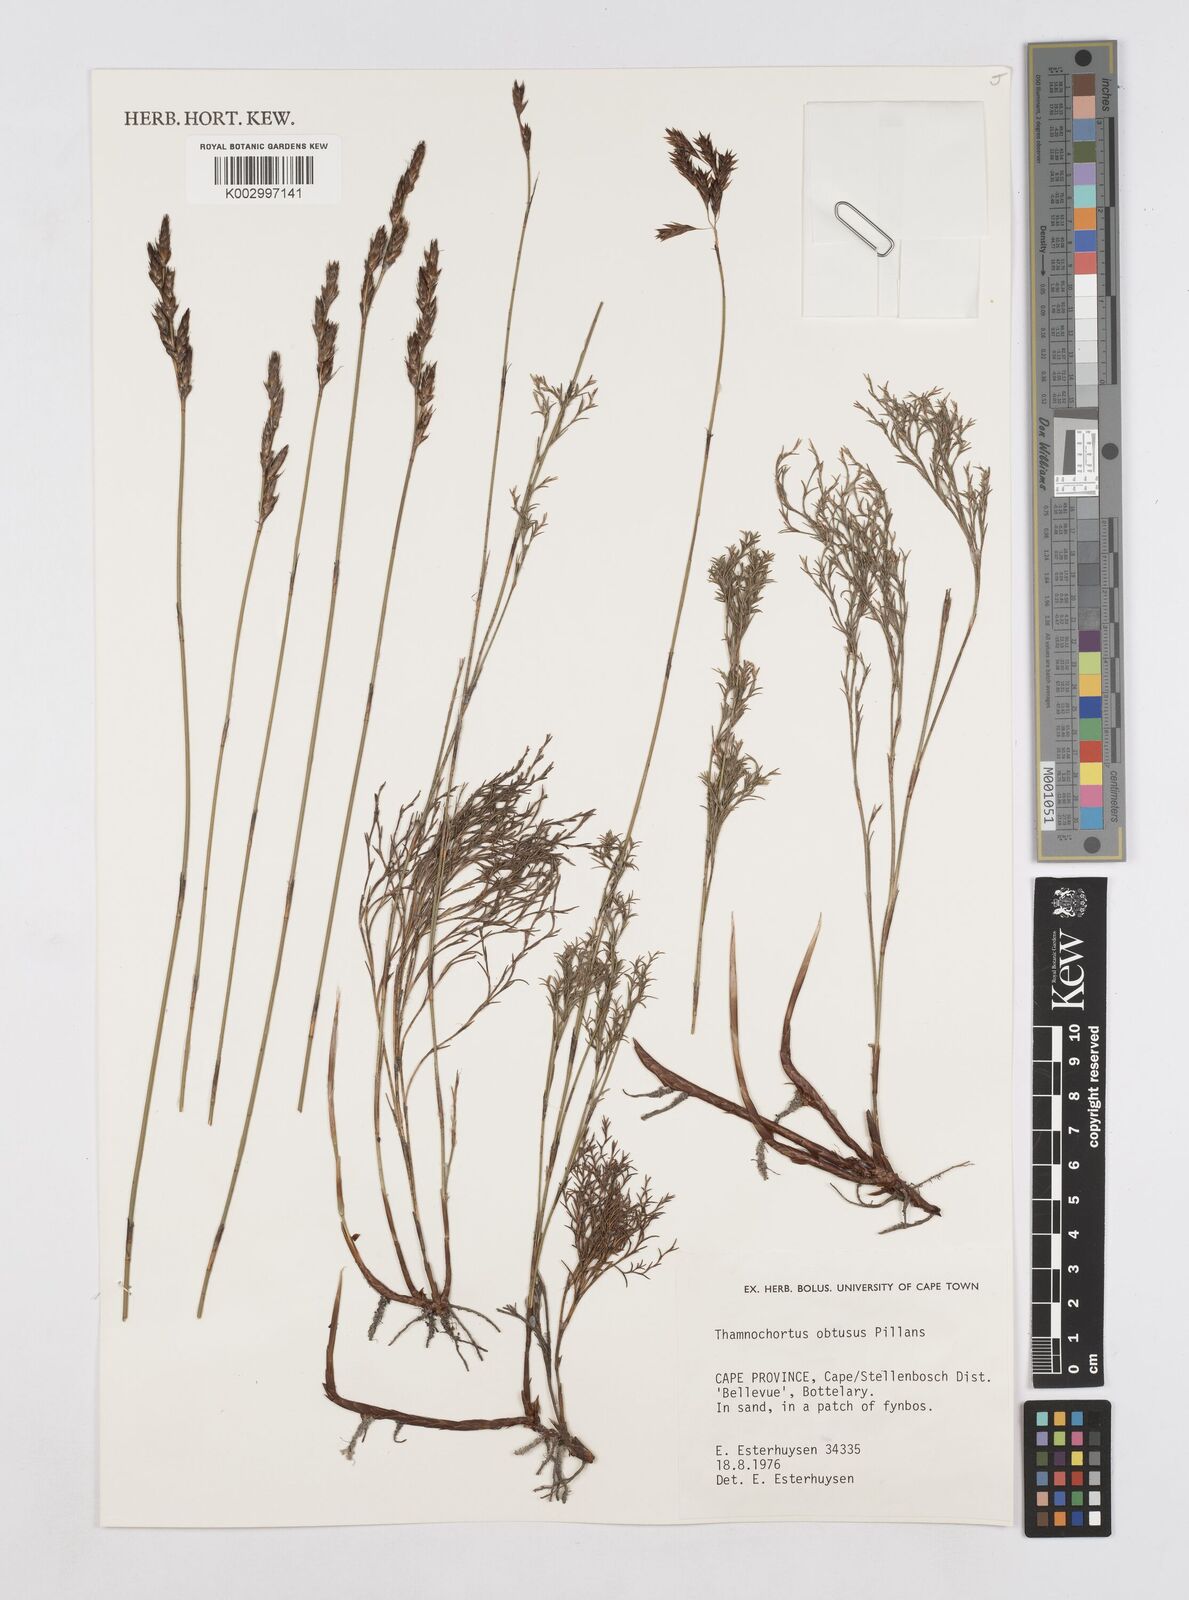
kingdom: Plantae
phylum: Tracheophyta
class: Liliopsida
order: Poales
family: Restionaceae
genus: Thamnochortus
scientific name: Thamnochortus obtusus
